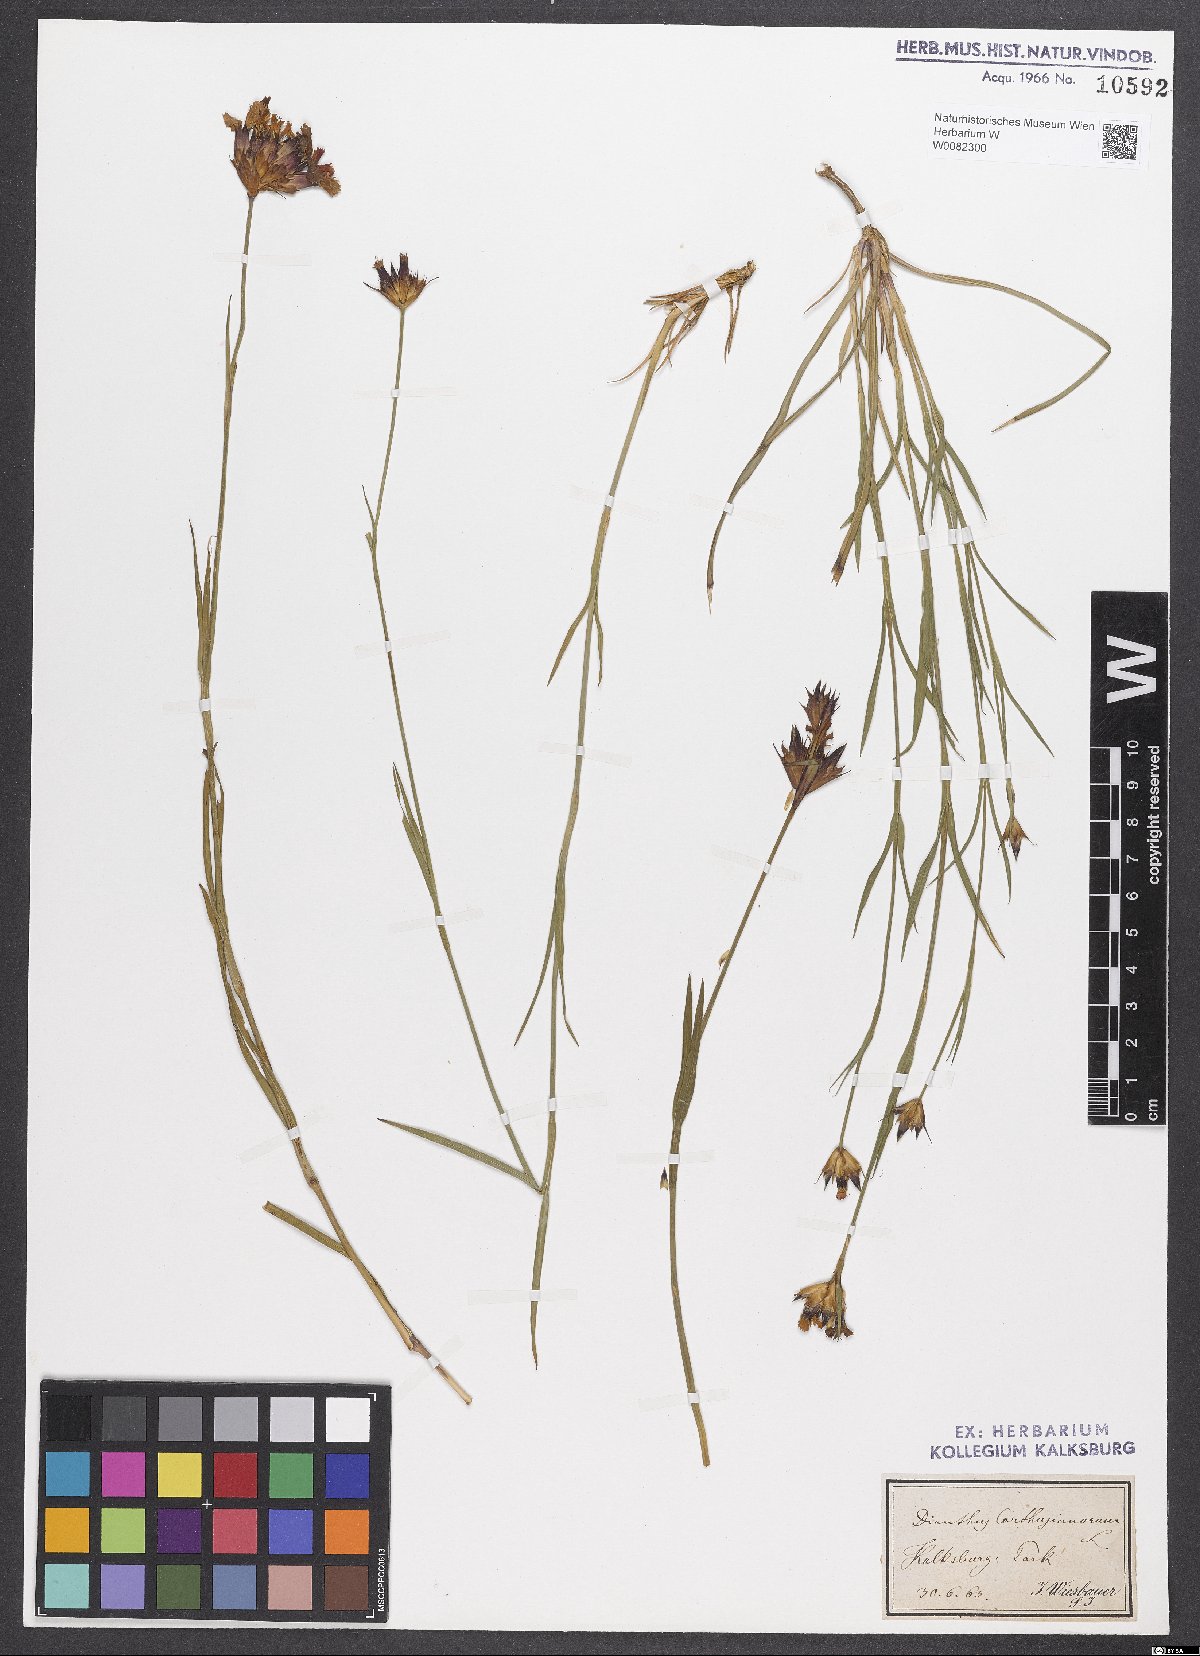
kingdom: Plantae
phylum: Tracheophyta
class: Magnoliopsida
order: Caryophyllales
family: Caryophyllaceae
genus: Dianthus
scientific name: Dianthus carthusianorum
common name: Carthusian pink
